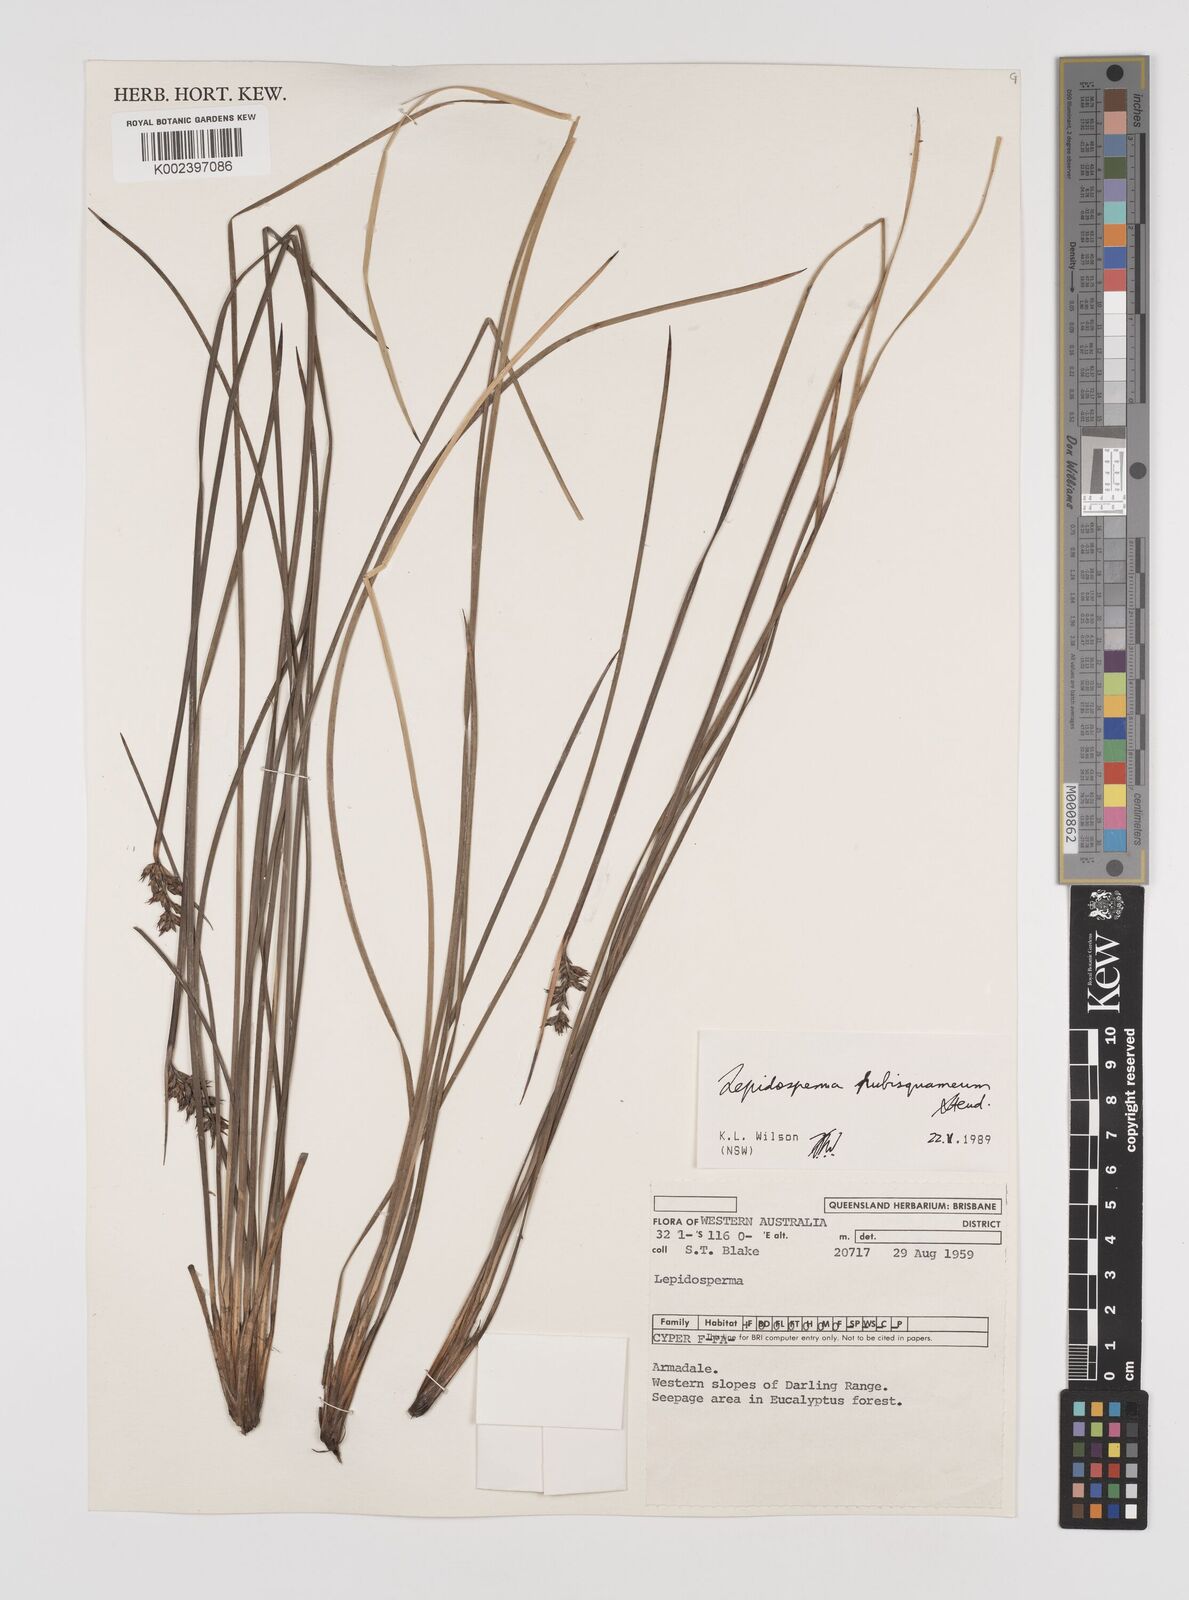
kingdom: Plantae
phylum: Tracheophyta
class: Liliopsida
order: Poales
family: Cyperaceae
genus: Lepidosperma
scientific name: Lepidosperma pubisquameum
